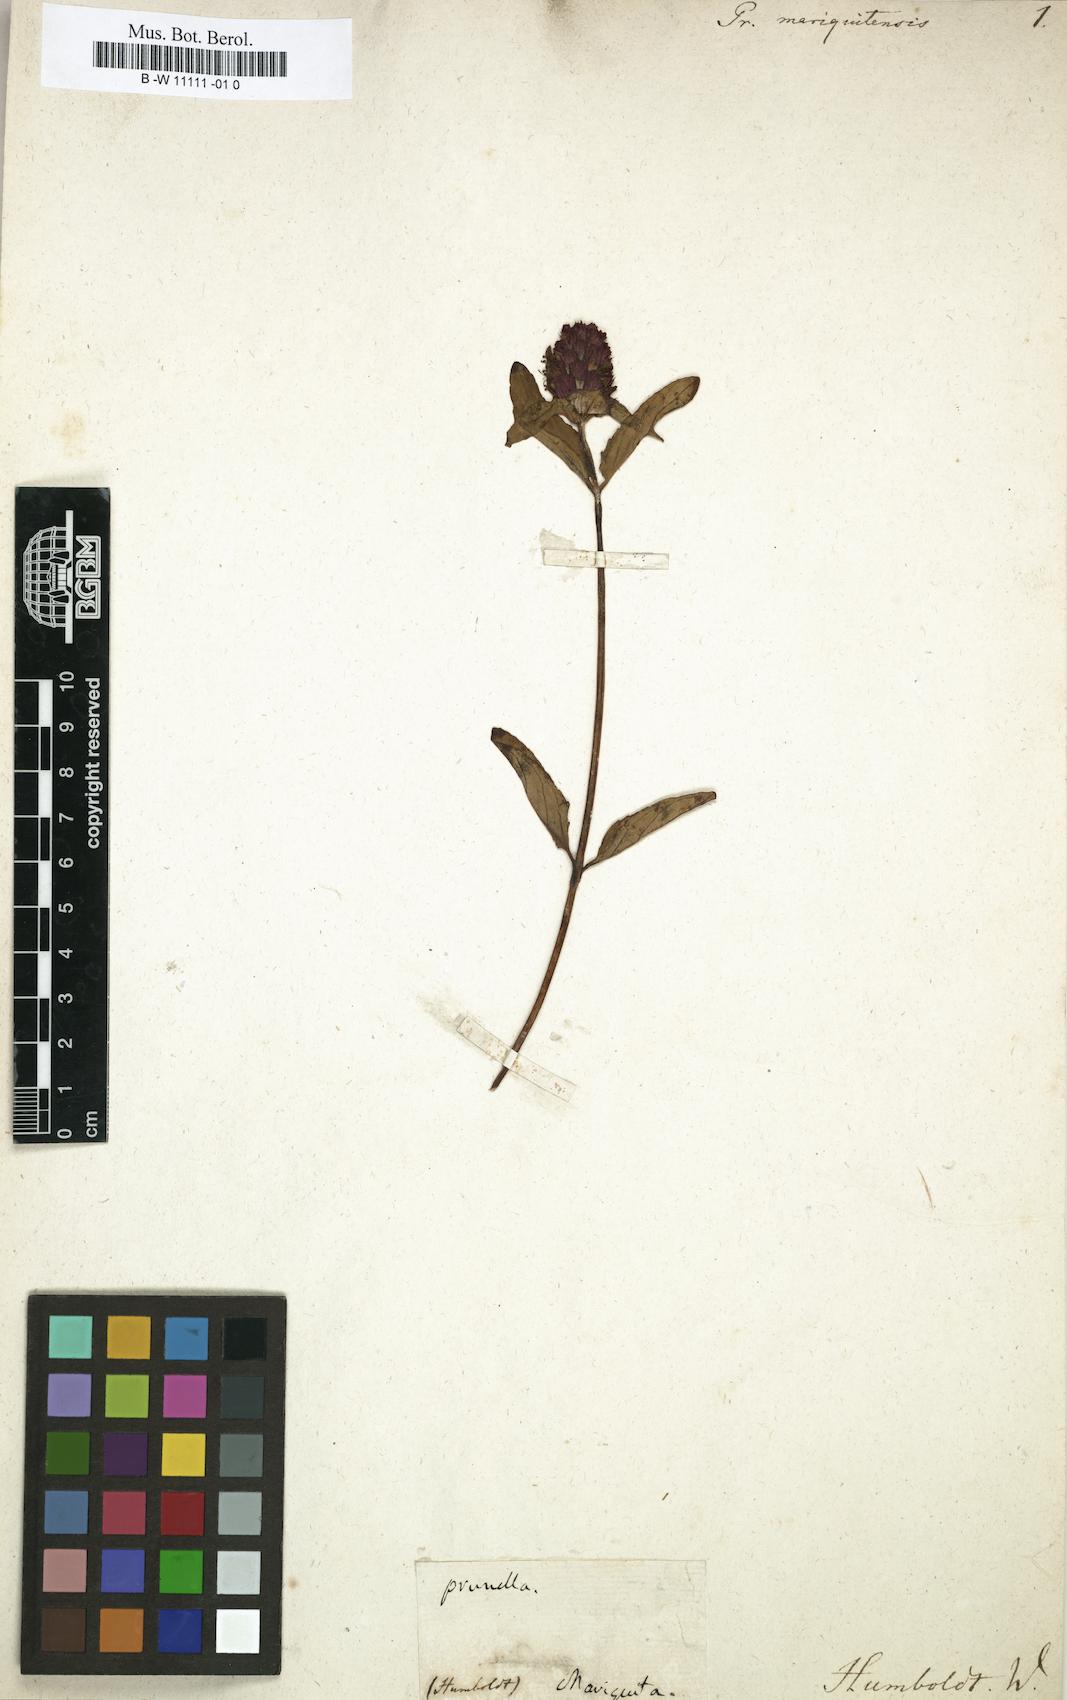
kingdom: Plantae
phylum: Tracheophyta
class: Magnoliopsida
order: Lamiales
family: Lamiaceae
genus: Prunella
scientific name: Prunella vulgaris
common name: Heal-all
